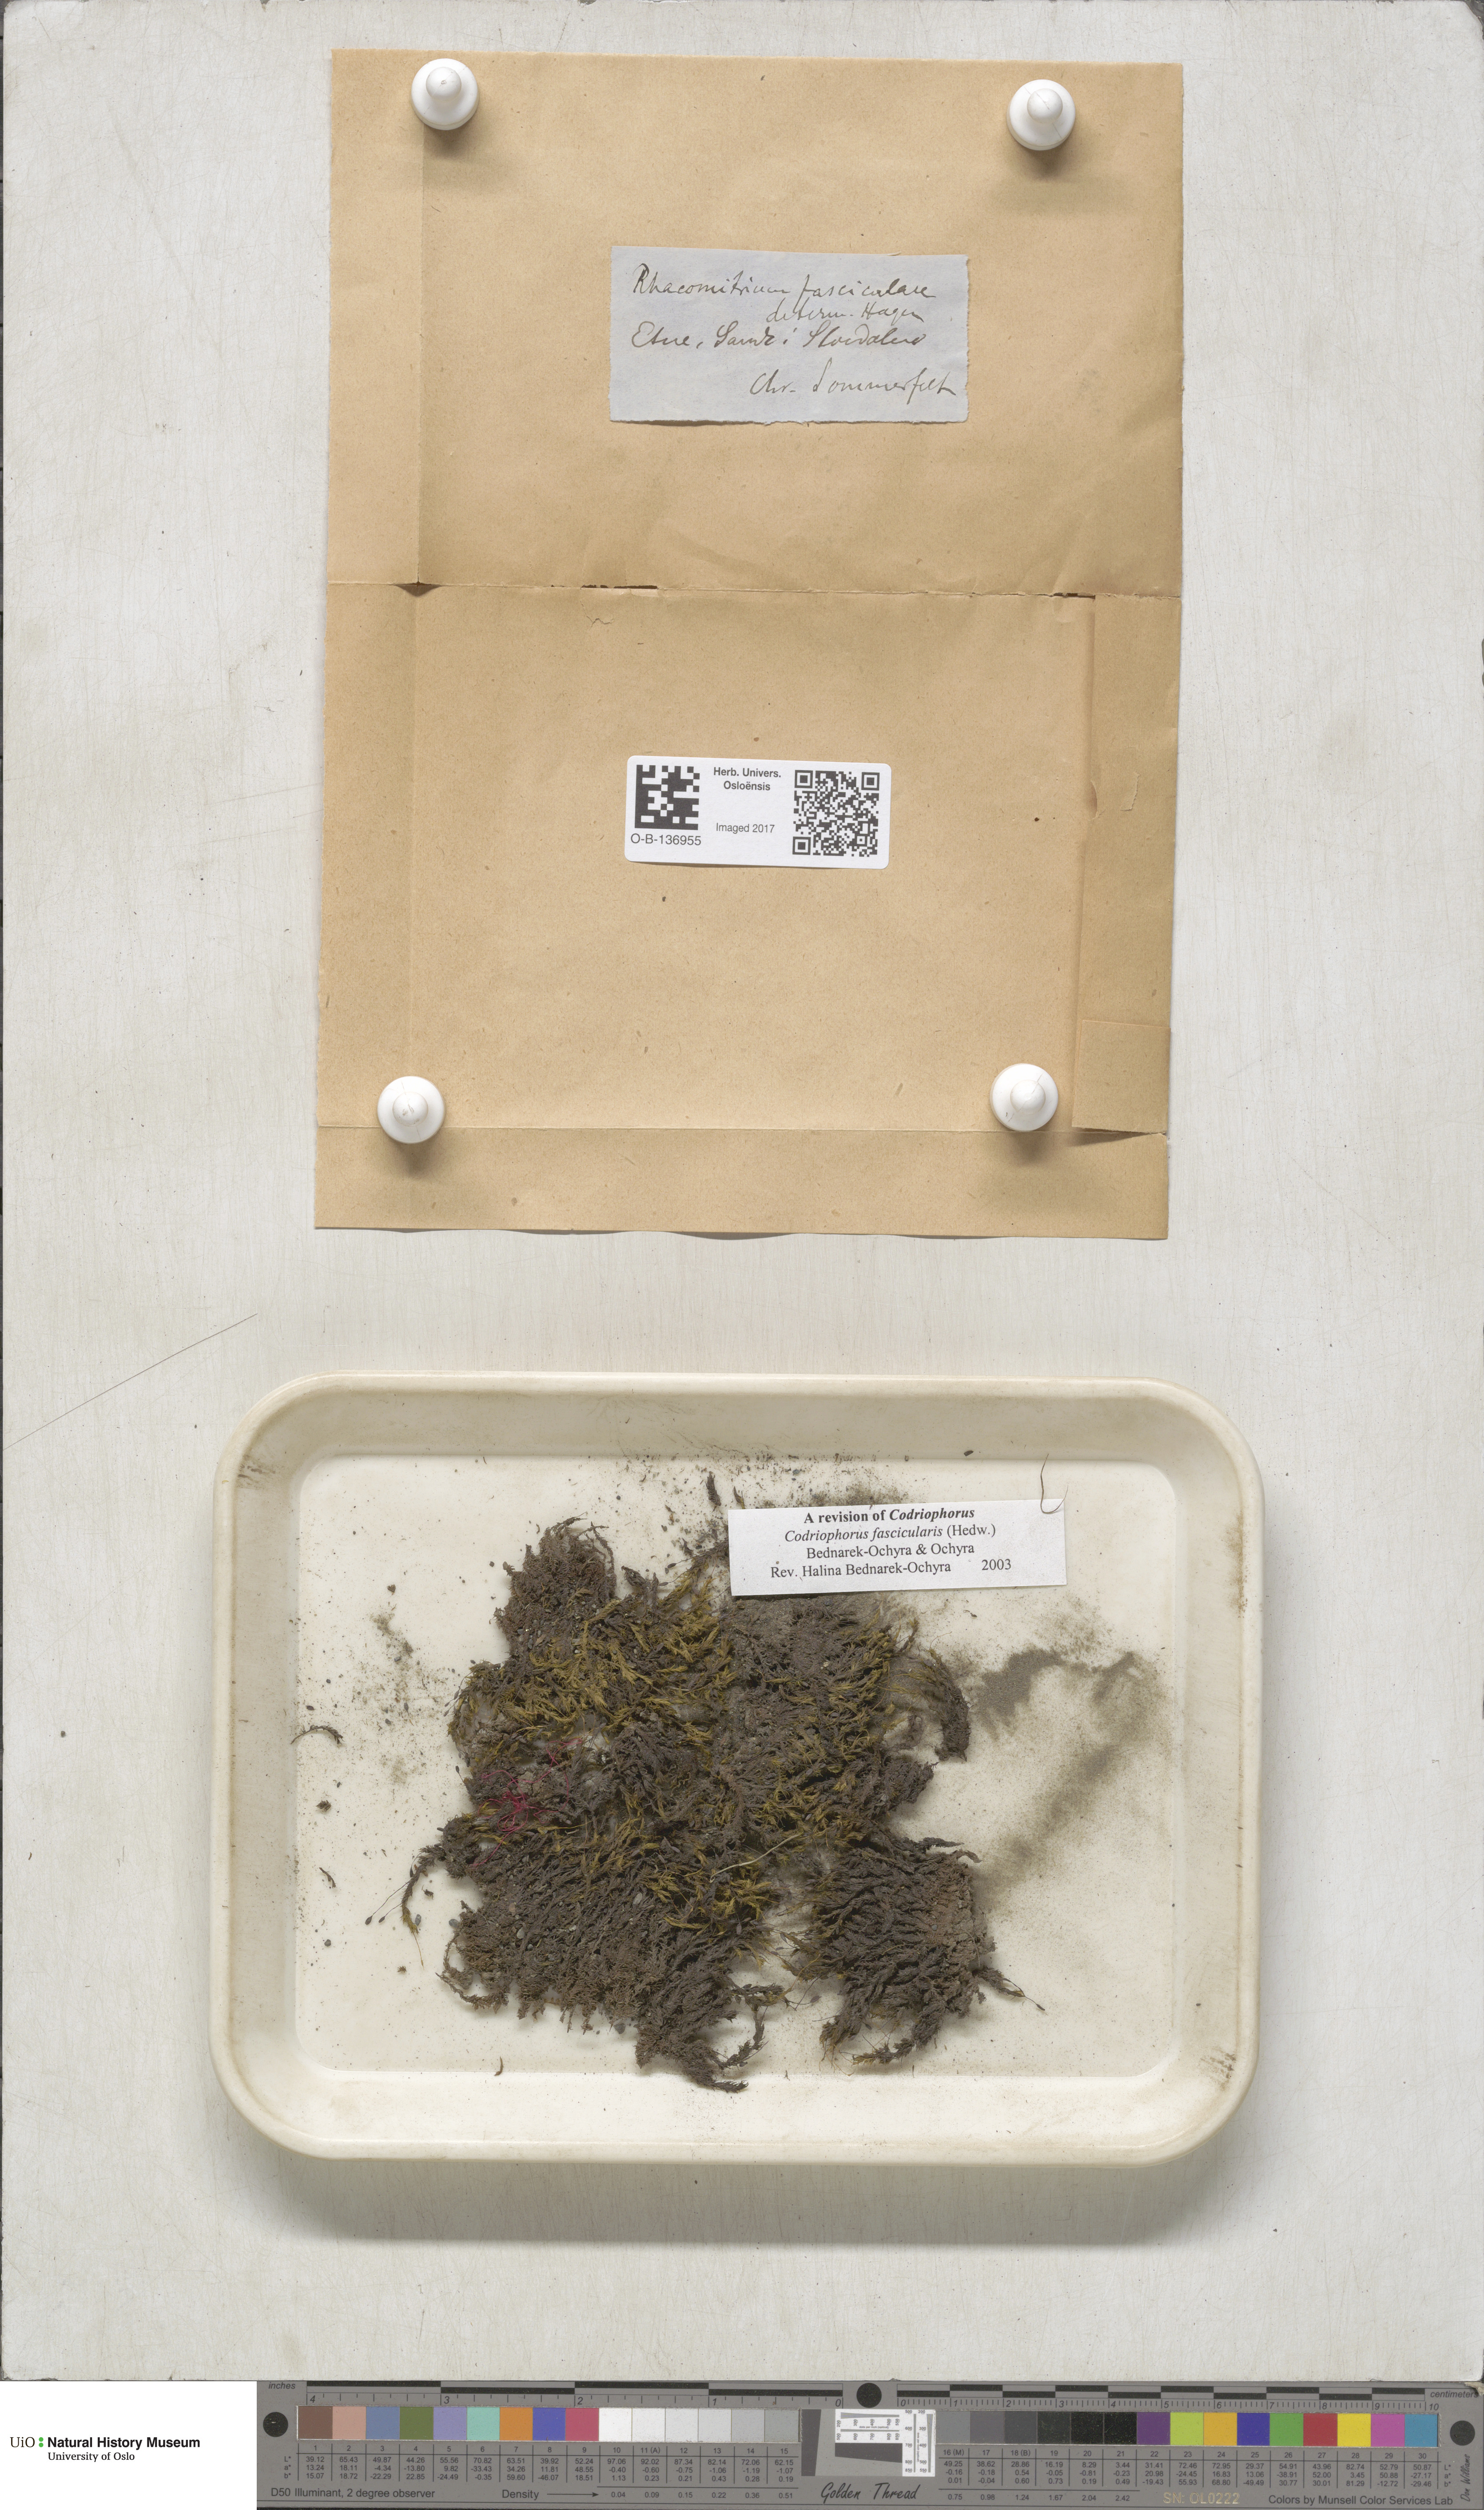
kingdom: Plantae
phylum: Bryophyta
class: Bryopsida
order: Grimmiales
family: Grimmiaceae
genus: Dilutineuron
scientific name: Dilutineuron fasciculare
